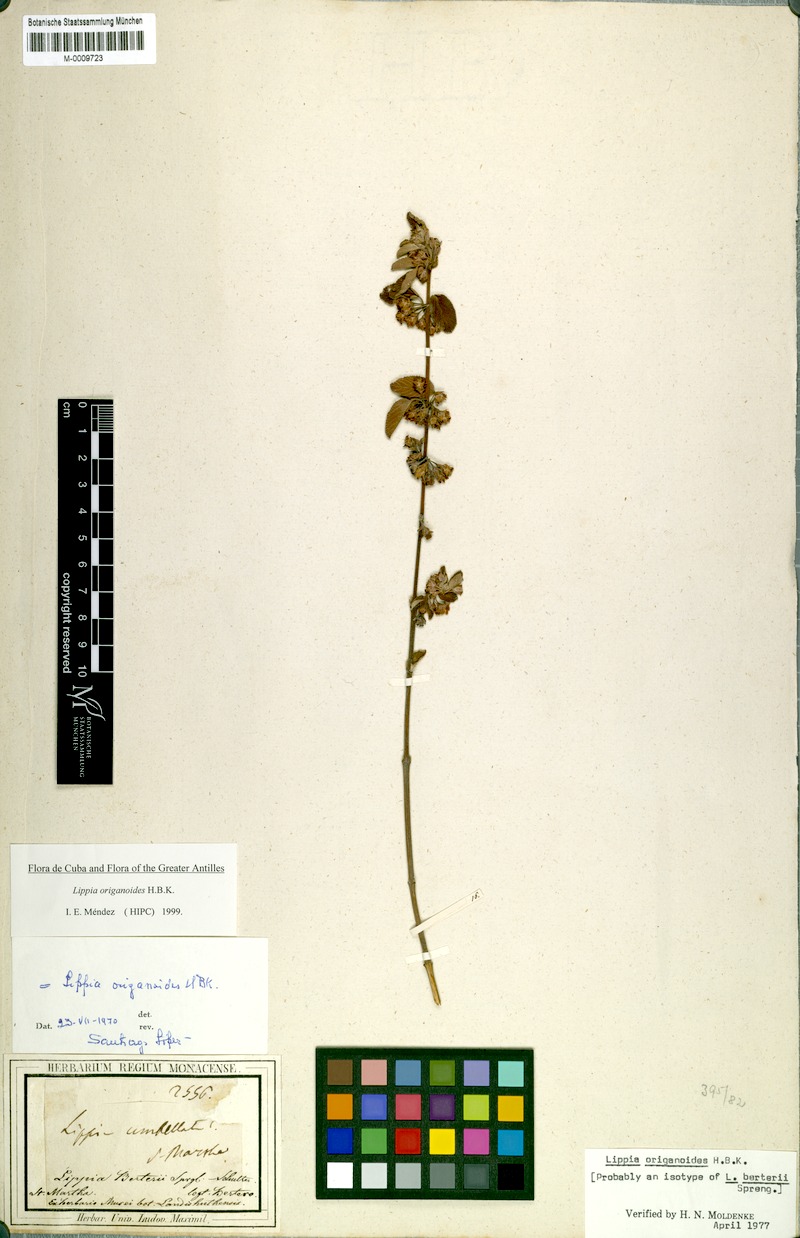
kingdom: Plantae
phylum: Tracheophyta
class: Magnoliopsida
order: Lamiales
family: Verbenaceae
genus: Lippia
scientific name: Lippia origanoides
